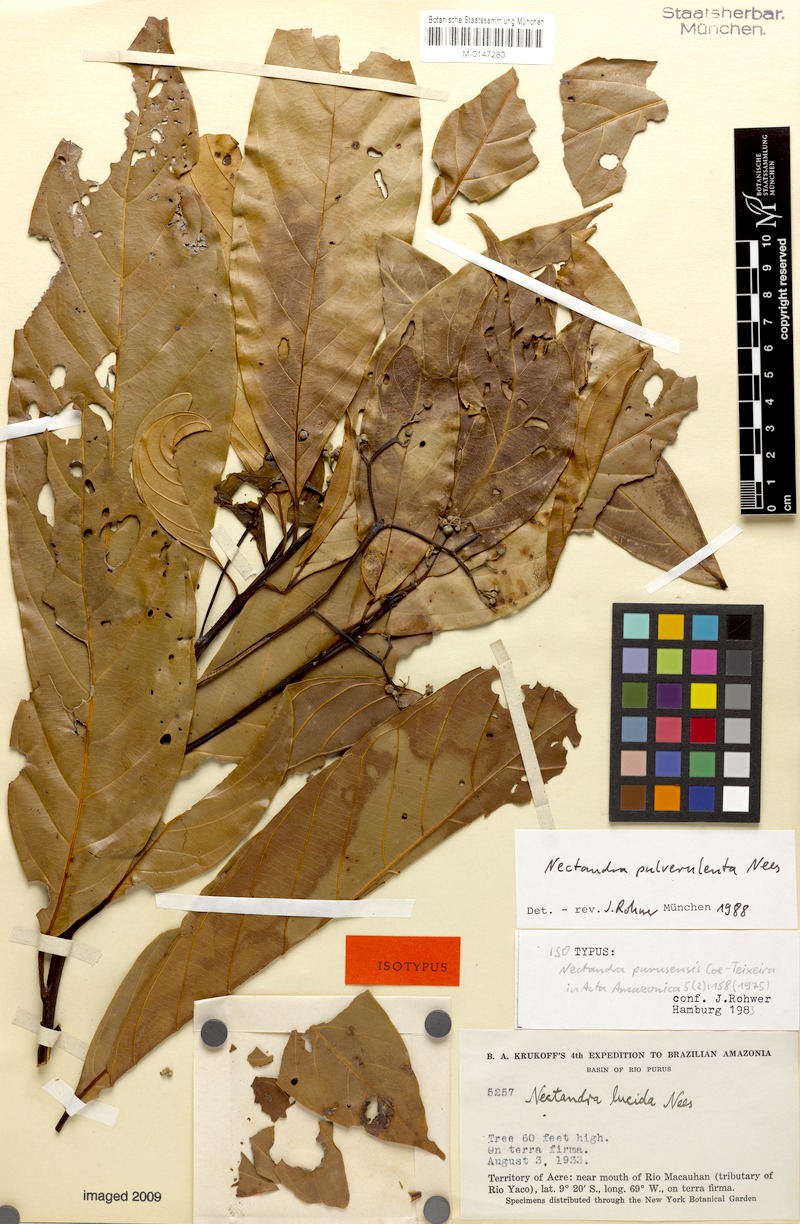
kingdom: Plantae
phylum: Tracheophyta
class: Magnoliopsida
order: Laurales
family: Lauraceae
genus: Nectandra
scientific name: Nectandra pulverulenta
